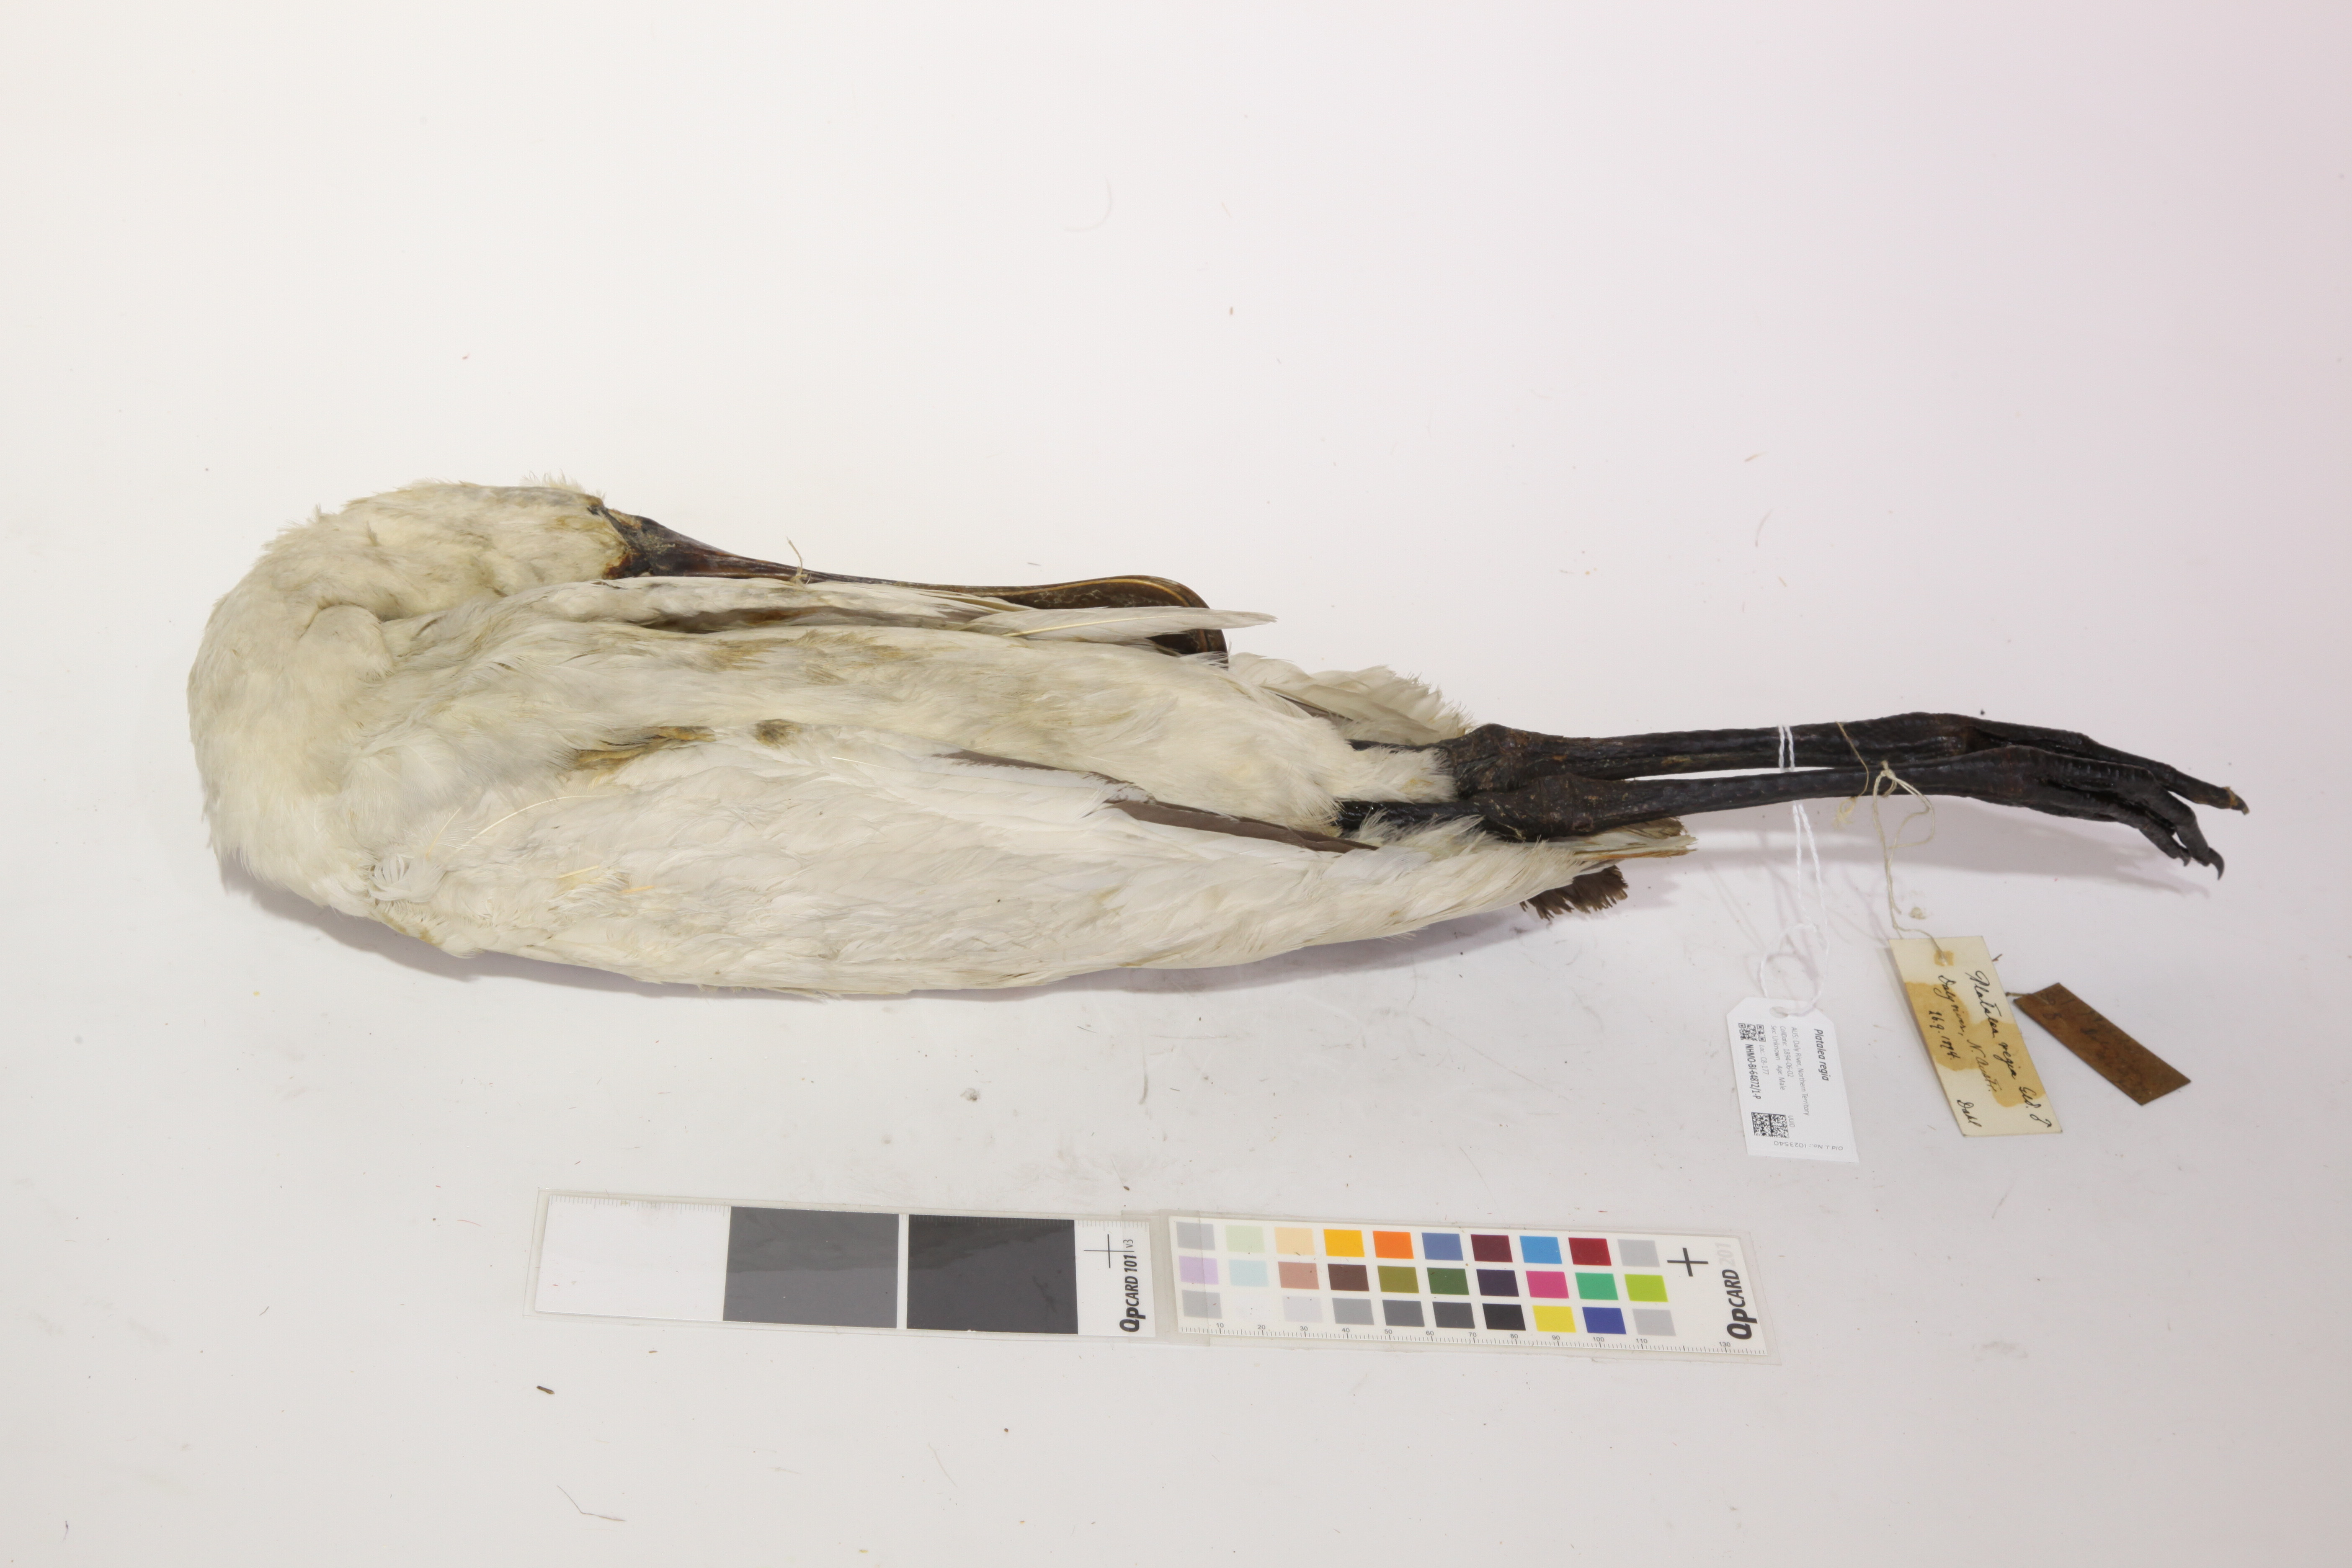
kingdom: Animalia
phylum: Chordata
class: Aves
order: Pelecaniformes
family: Threskiornithidae
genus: Platalea
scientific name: Platalea regia
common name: Royal spoonbill
